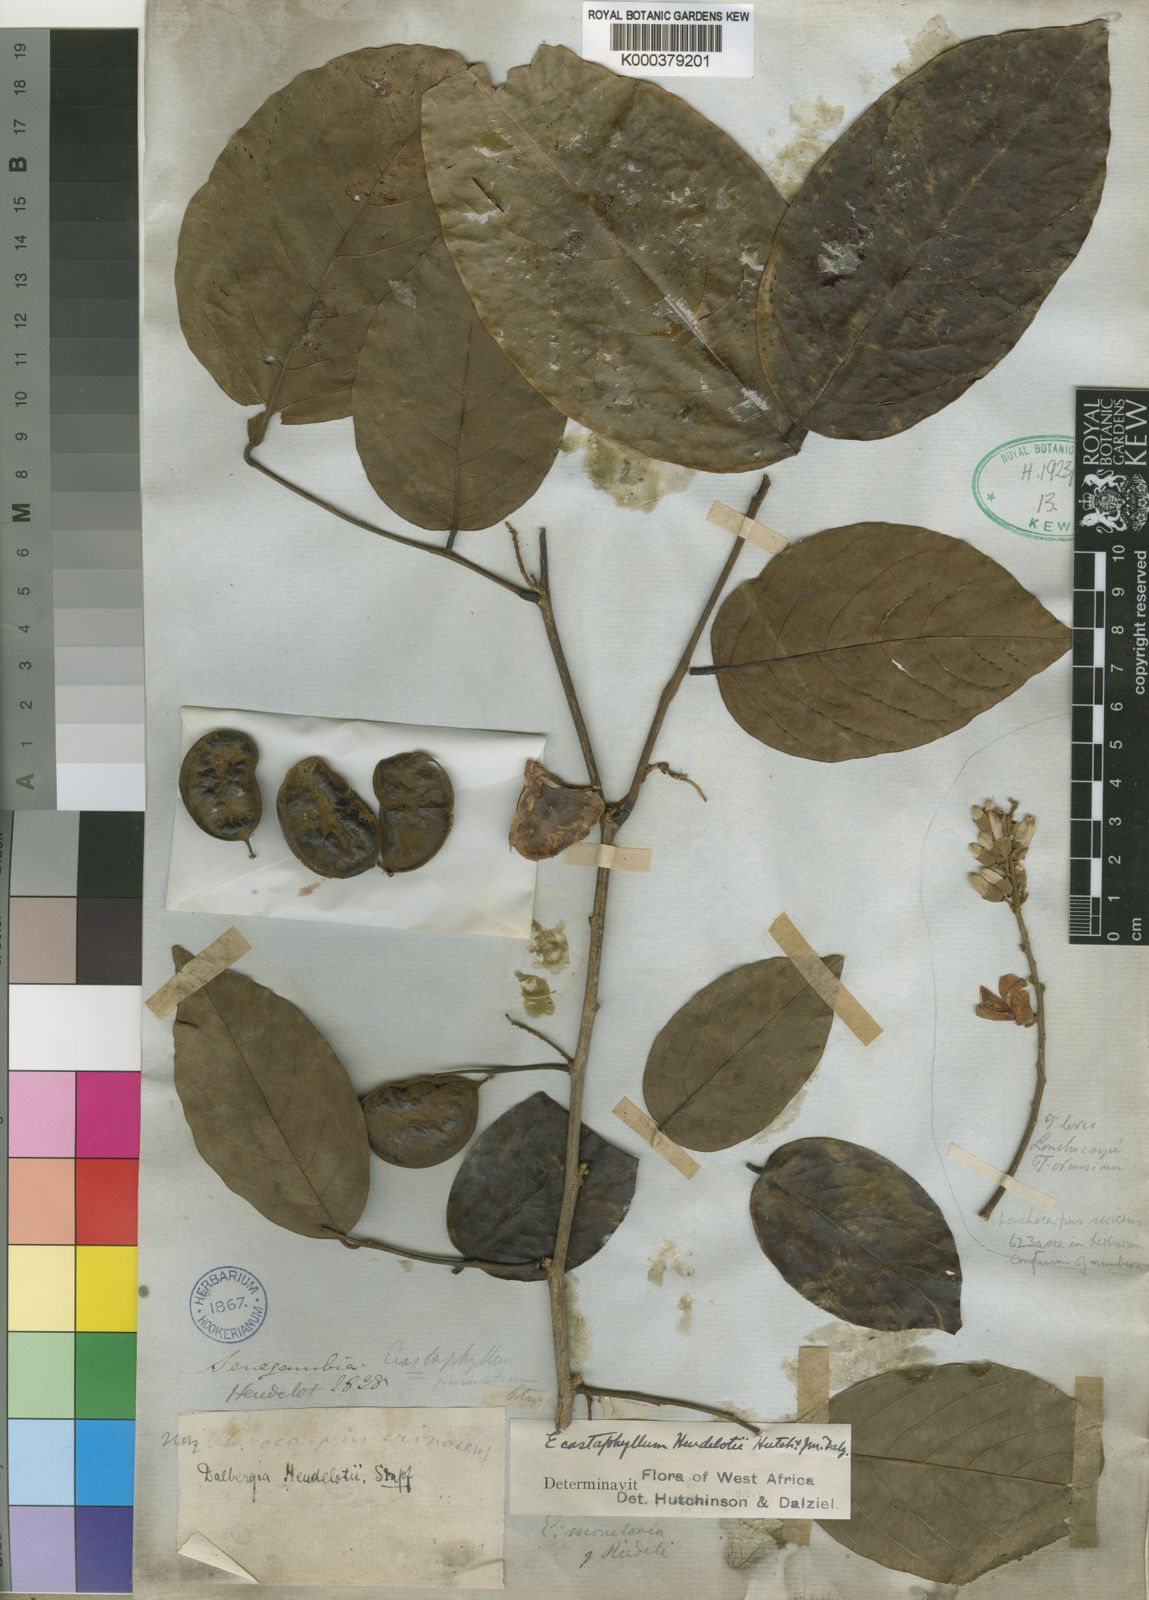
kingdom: Plantae
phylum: Tracheophyta
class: Magnoliopsida
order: Fabales
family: Fabaceae
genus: Dalbergia
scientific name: Dalbergia mayumbensis
